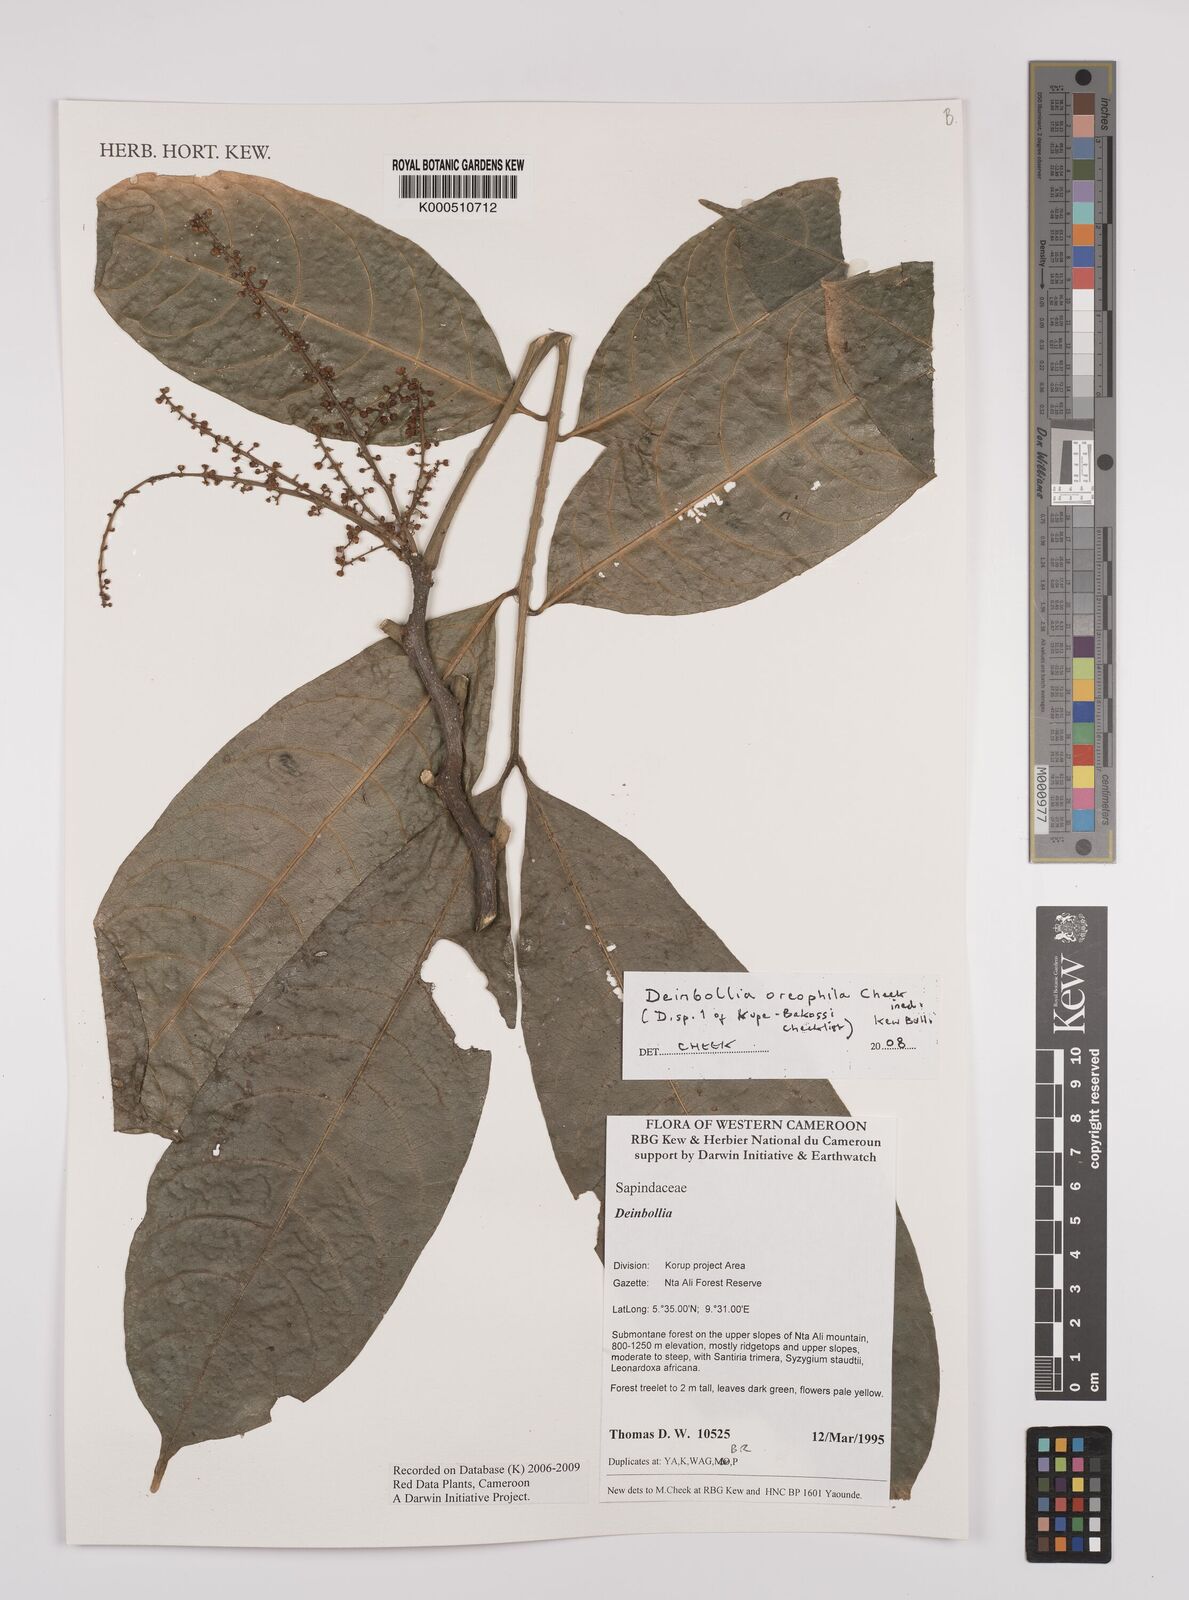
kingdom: Plantae
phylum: Tracheophyta
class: Magnoliopsida
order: Sapindales
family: Sapindaceae
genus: Deinbollia
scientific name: Deinbollia oreophila
